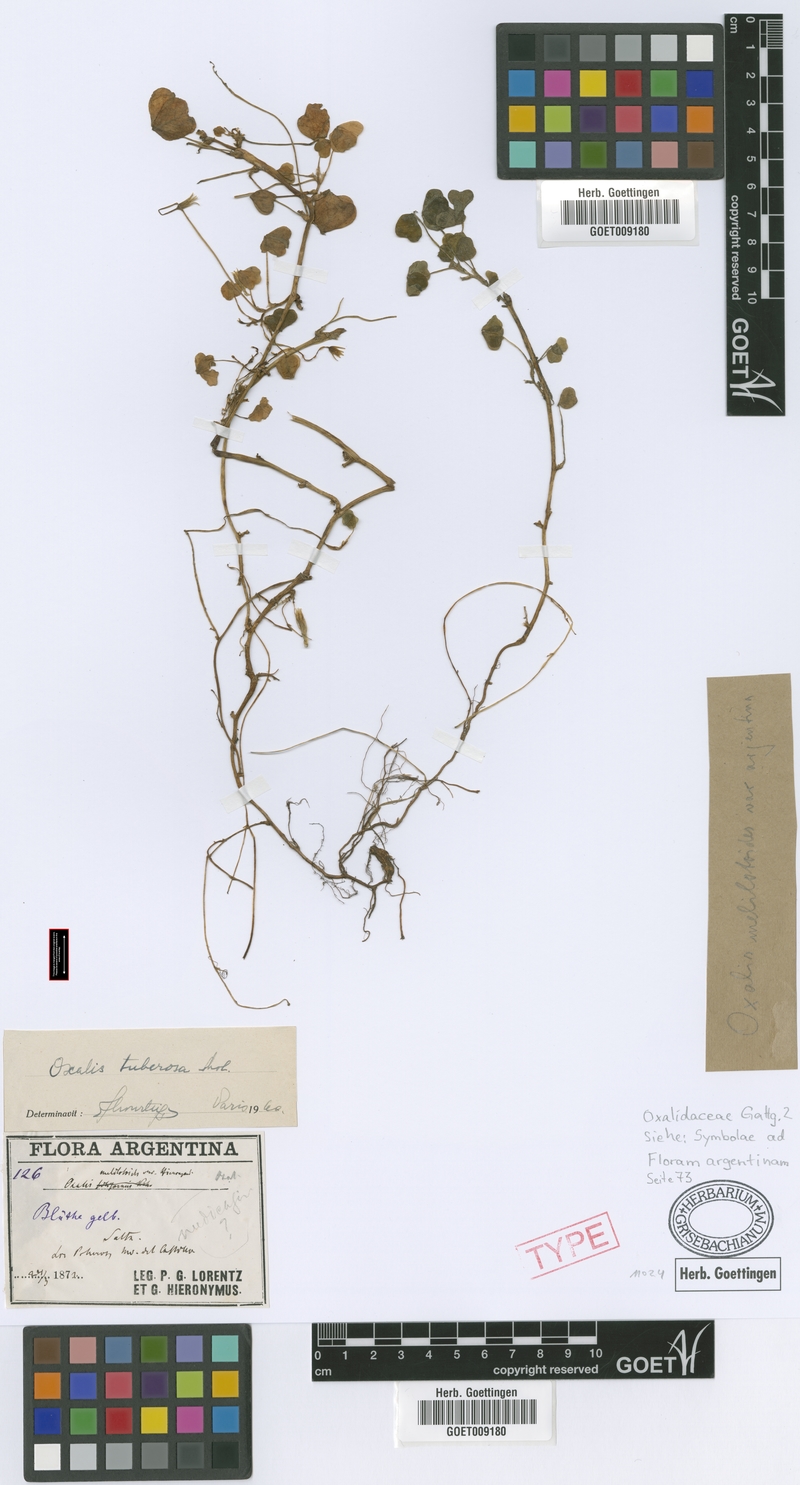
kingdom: Plantae
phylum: Tracheophyta
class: Magnoliopsida
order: Oxalidales
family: Oxalidaceae
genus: Oxalis
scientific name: Oxalis tuberosa
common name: New zealand-yam
